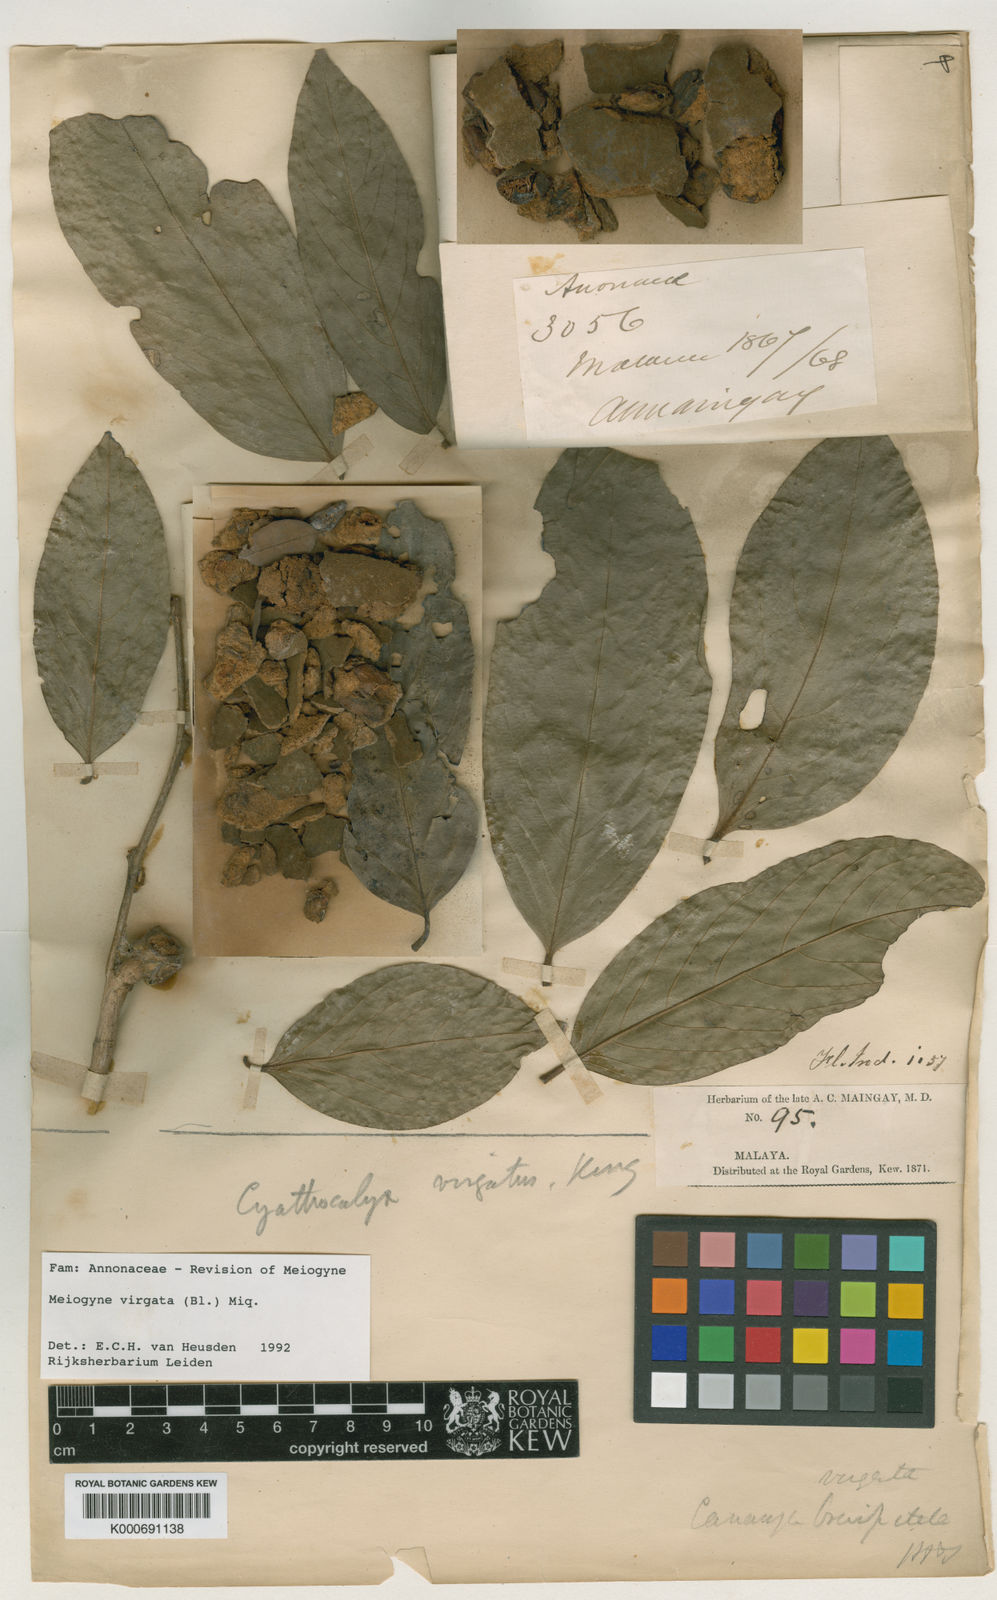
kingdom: Plantae
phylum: Tracheophyta
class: Magnoliopsida
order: Magnoliales
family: Annonaceae
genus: Meiogyne
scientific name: Meiogyne virgata
